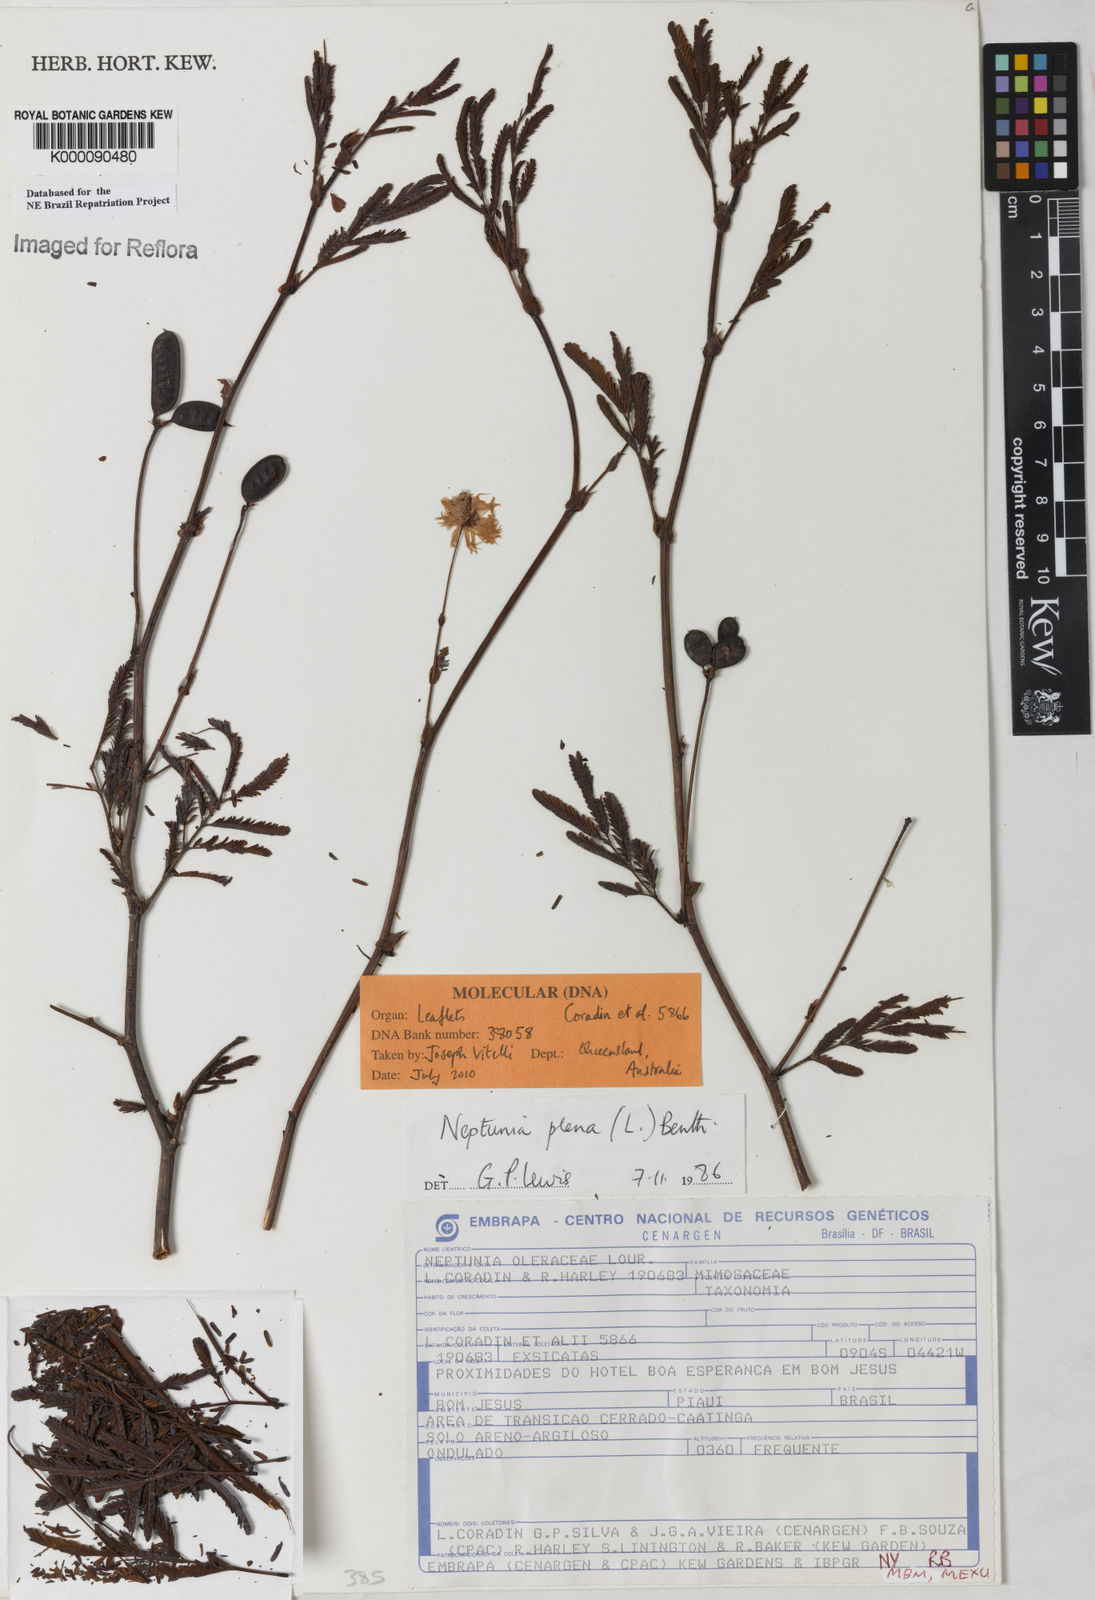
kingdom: Plantae
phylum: Tracheophyta
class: Magnoliopsida
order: Fabales
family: Fabaceae
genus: Neptunia
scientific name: Neptunia plena
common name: Dead and awake
